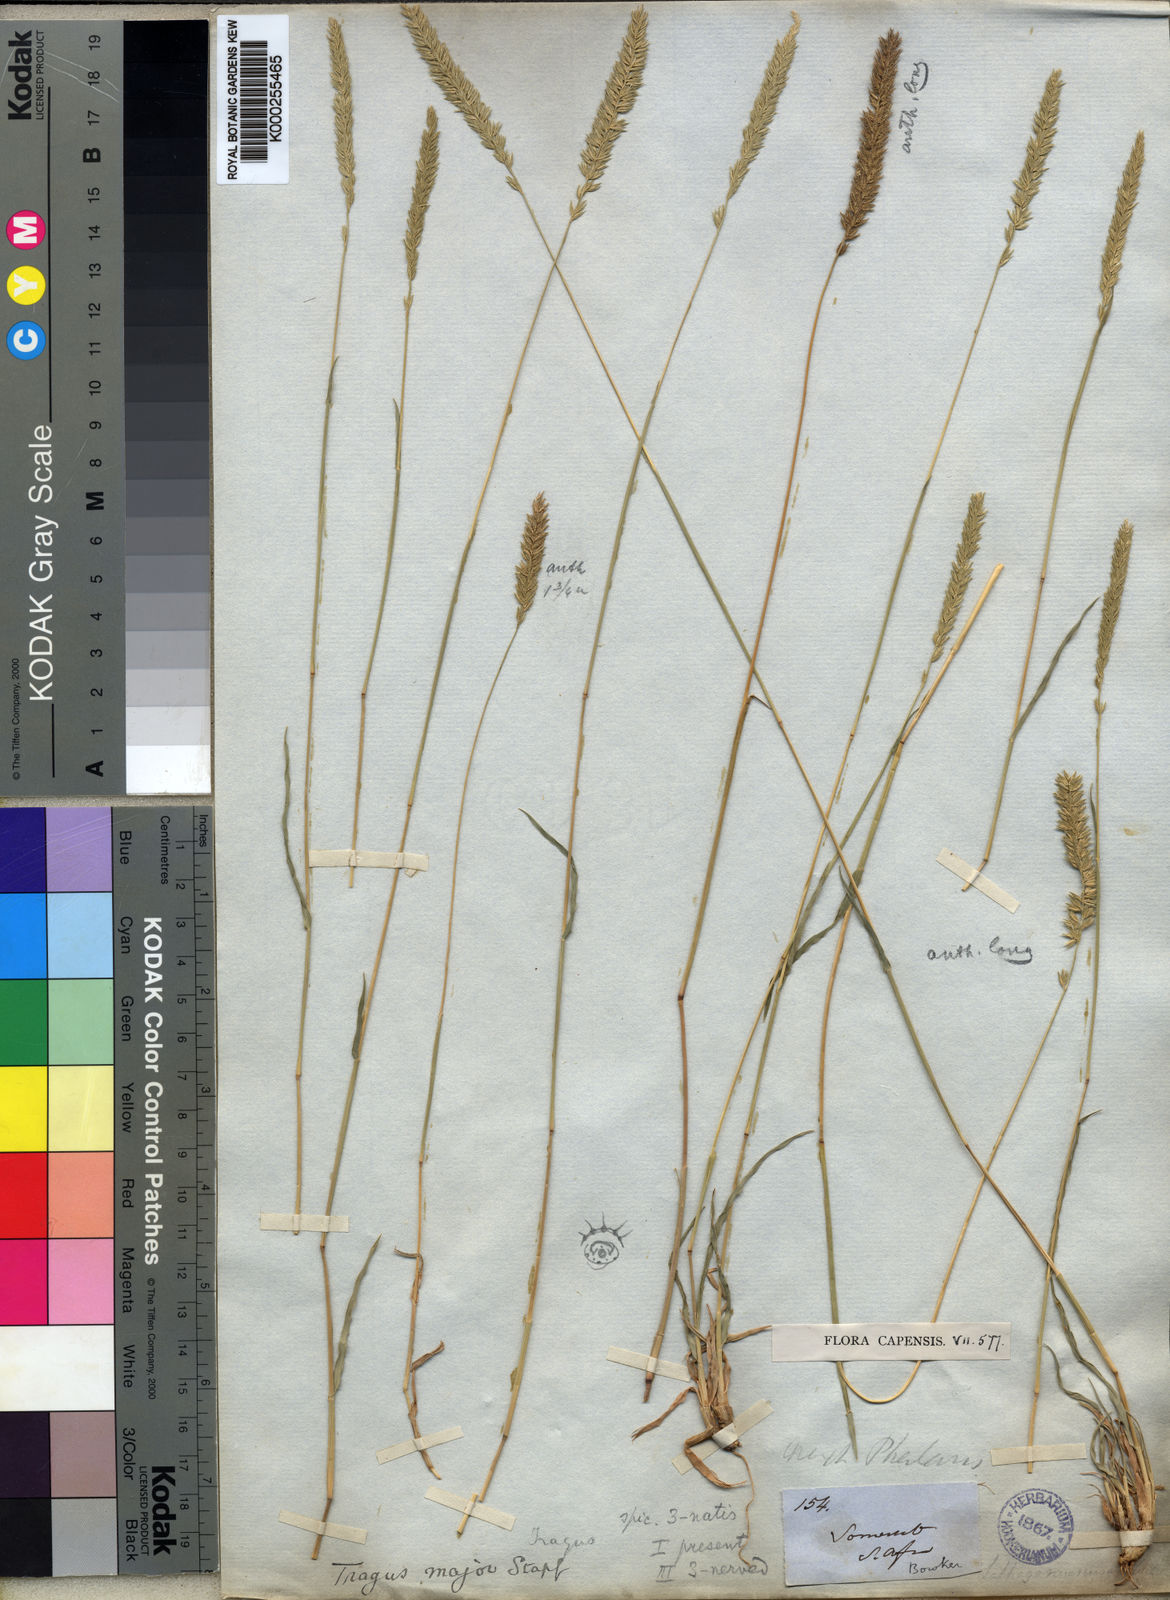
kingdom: Plantae
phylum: Tracheophyta
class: Liliopsida
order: Poales
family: Poaceae
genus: Tragus
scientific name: Tragus koelerioides
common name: Creeping carrot-seed grass
